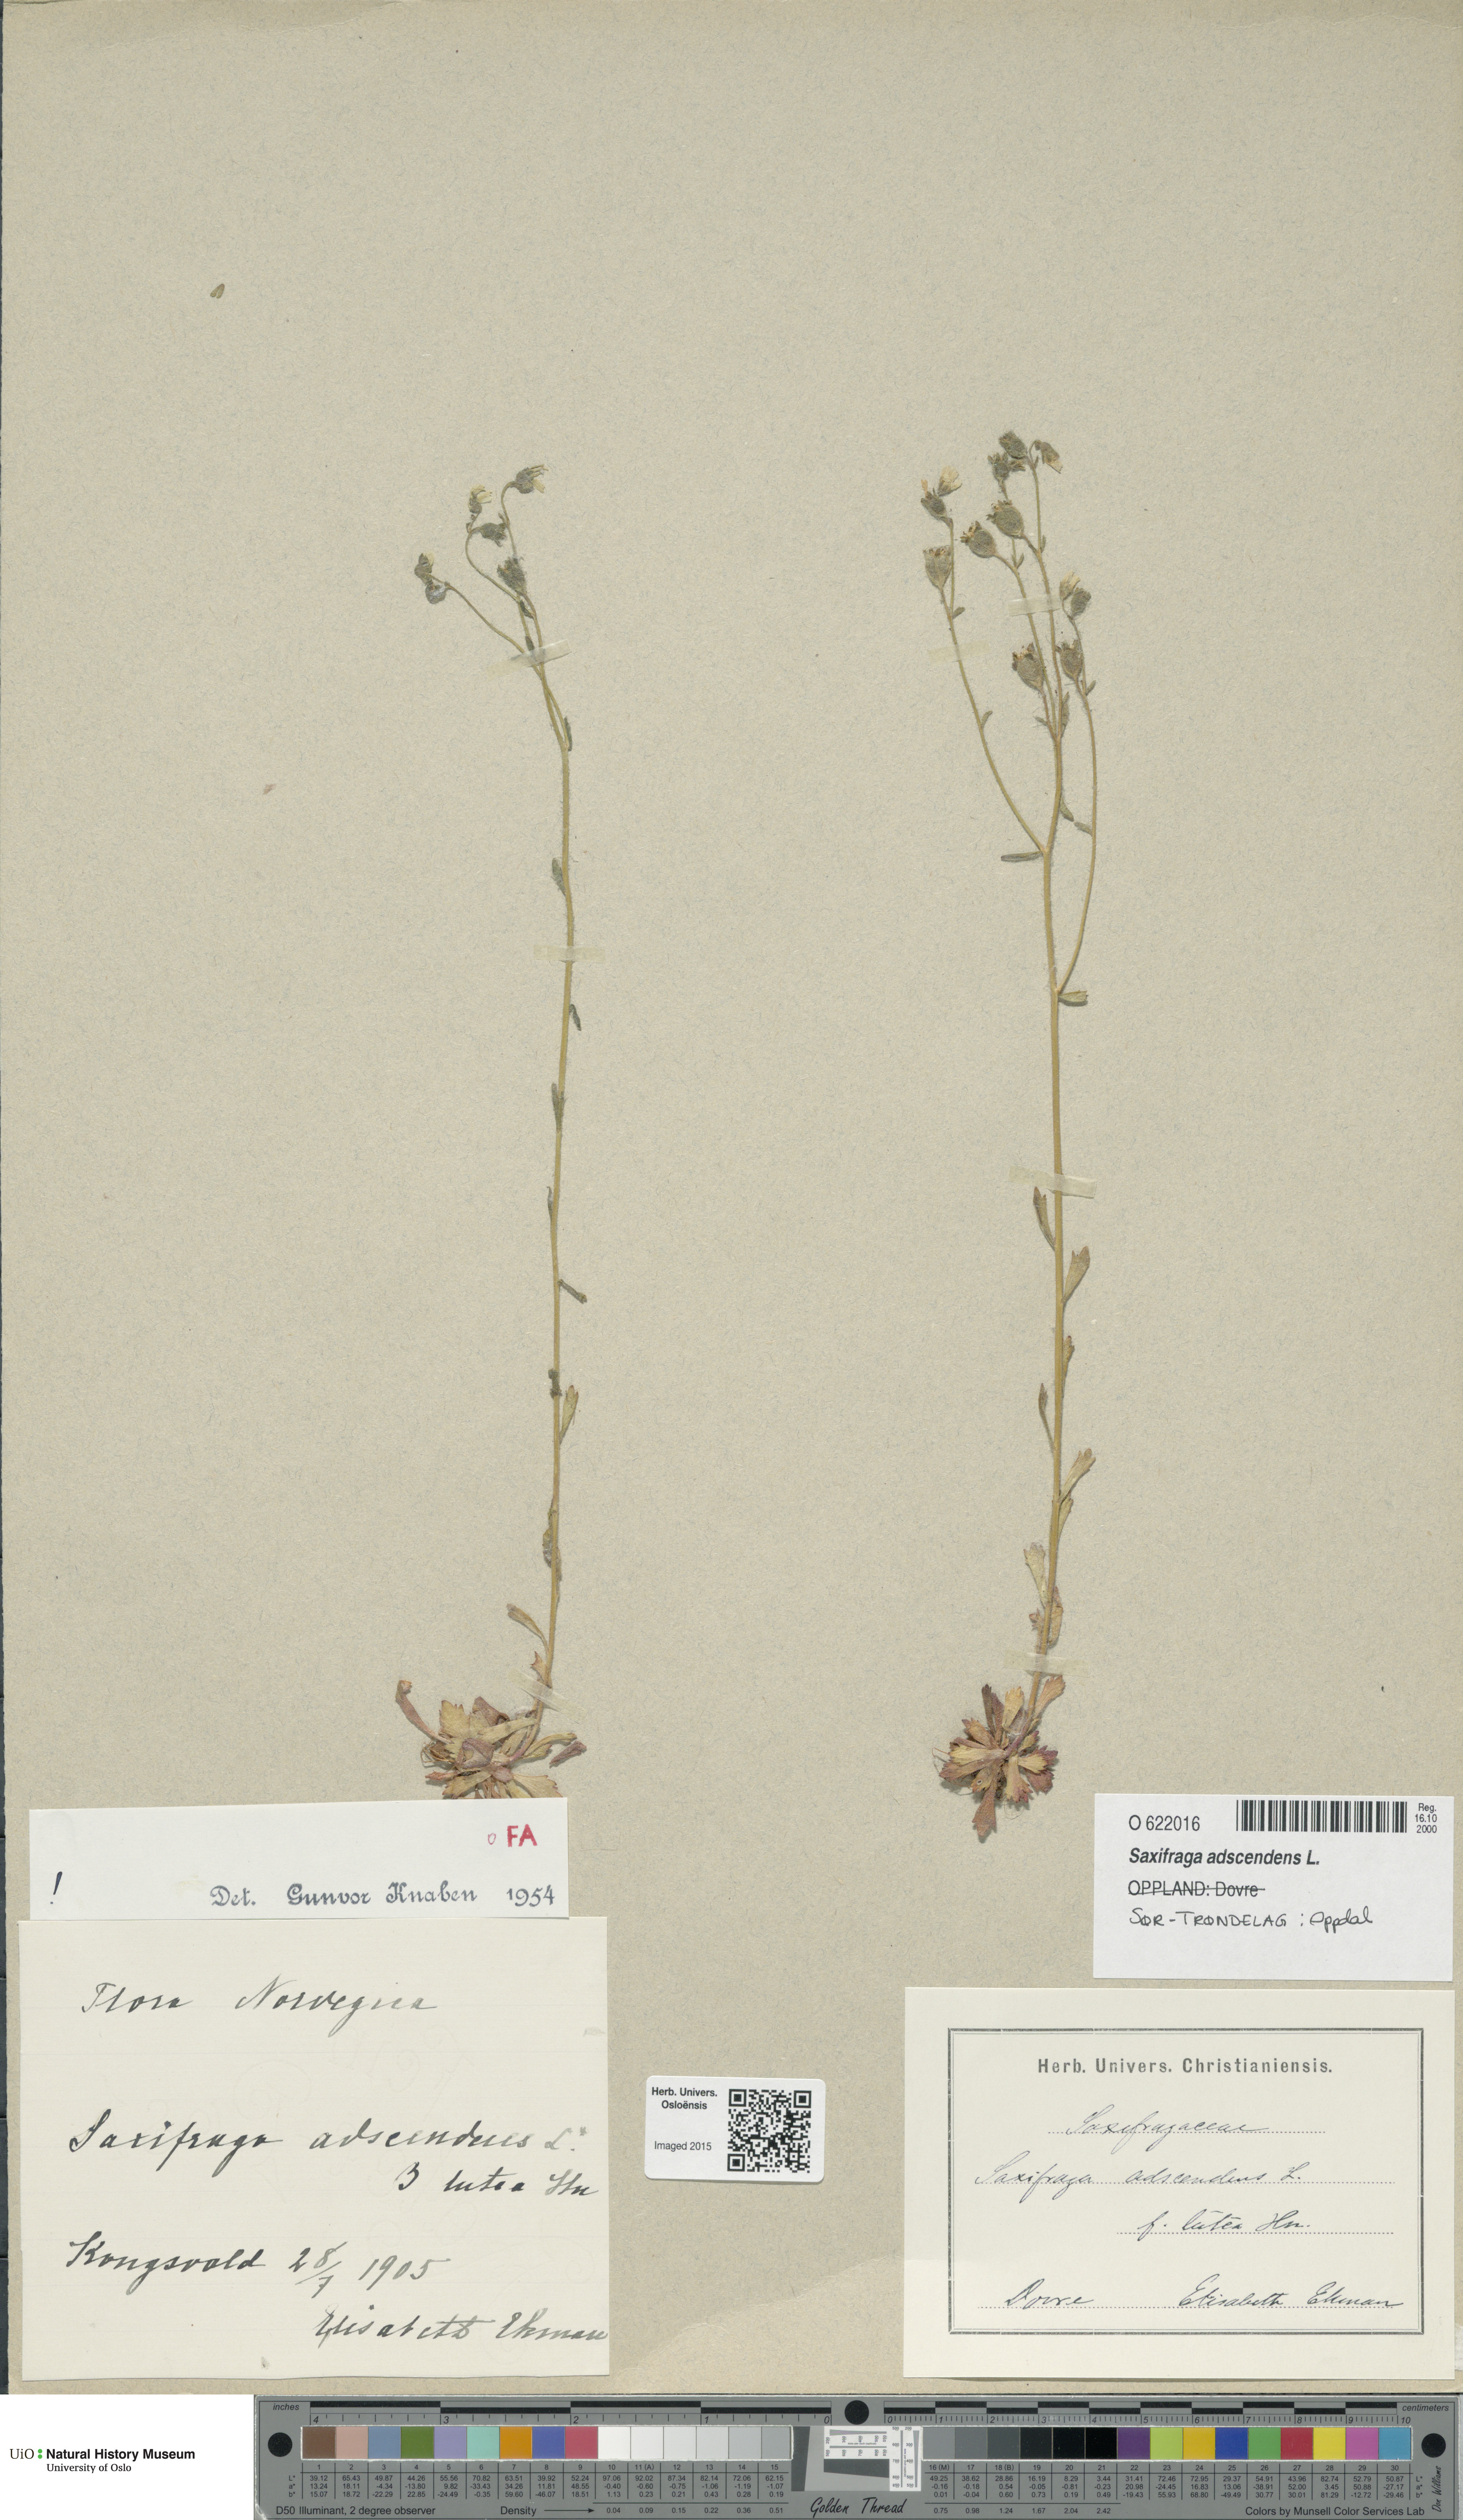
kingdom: Plantae
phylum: Tracheophyta
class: Magnoliopsida
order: Saxifragales
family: Saxifragaceae
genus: Saxifraga
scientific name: Saxifraga adscendens
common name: Ascending saxifrage
